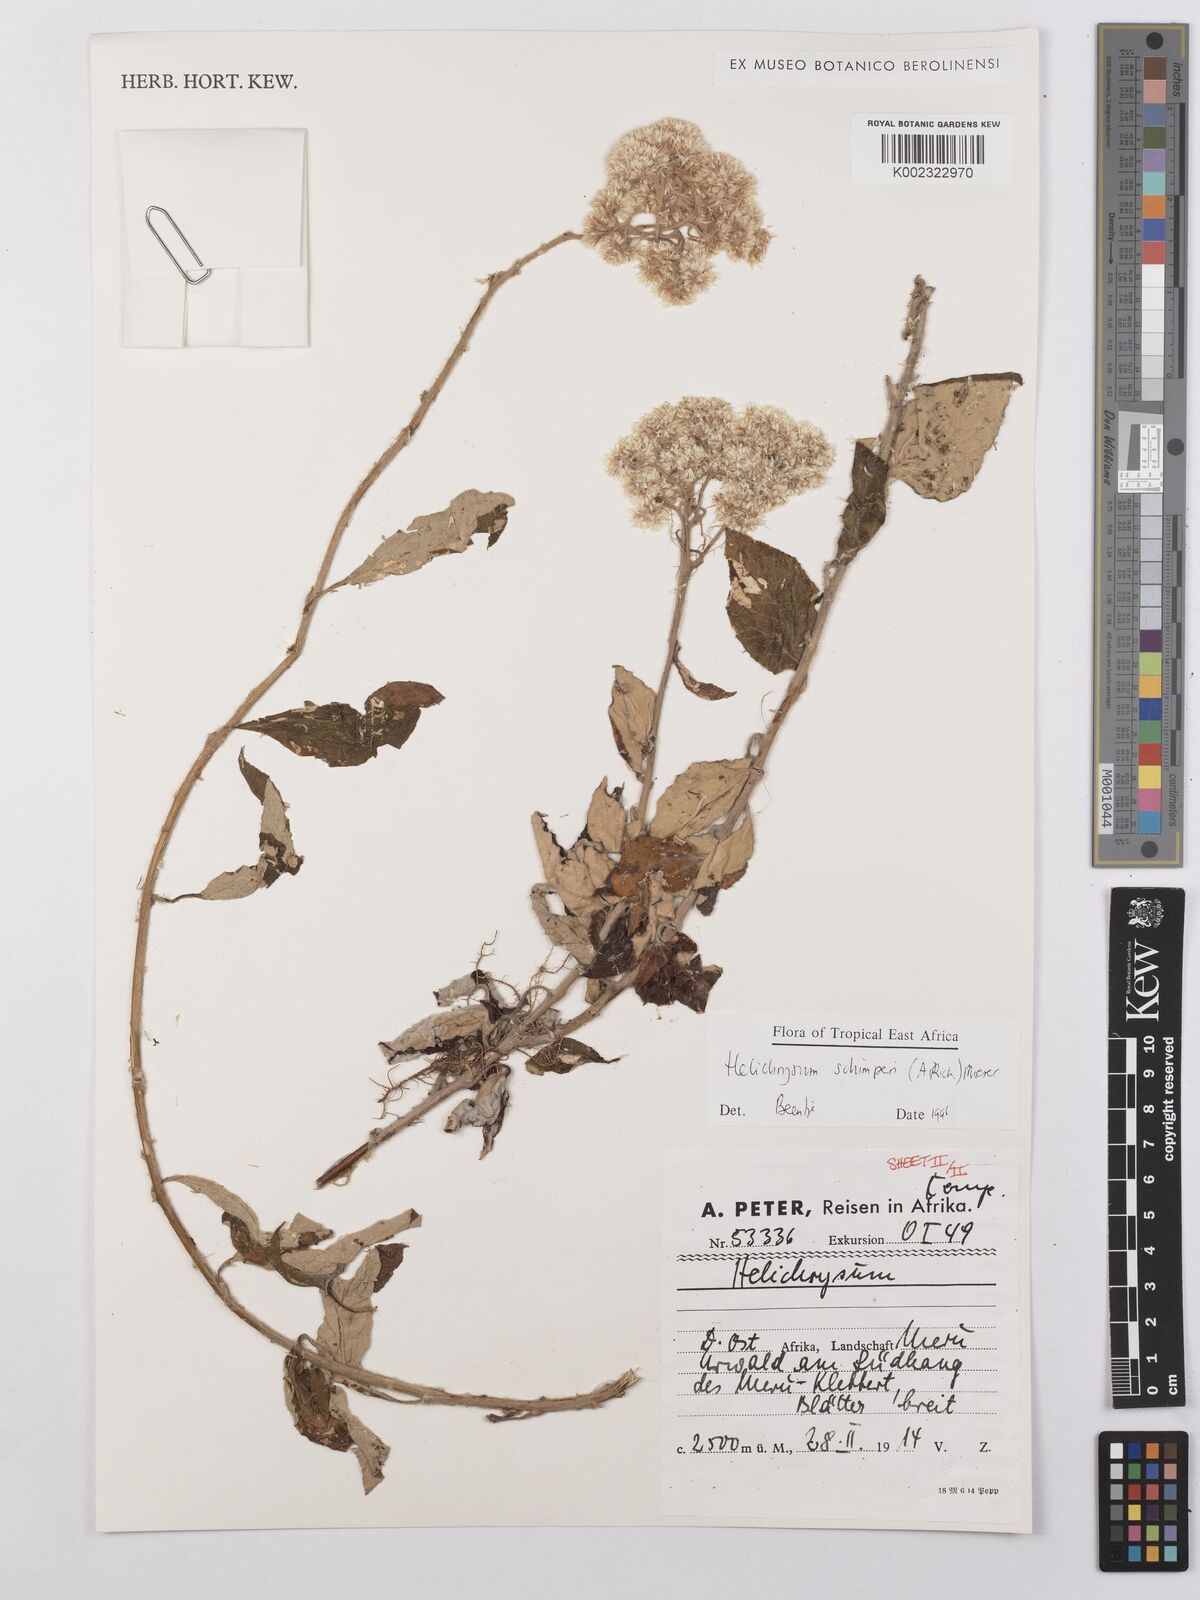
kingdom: Plantae
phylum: Tracheophyta
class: Magnoliopsida
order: Asterales
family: Asteraceae
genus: Helichrysum
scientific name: Helichrysum schimperi
